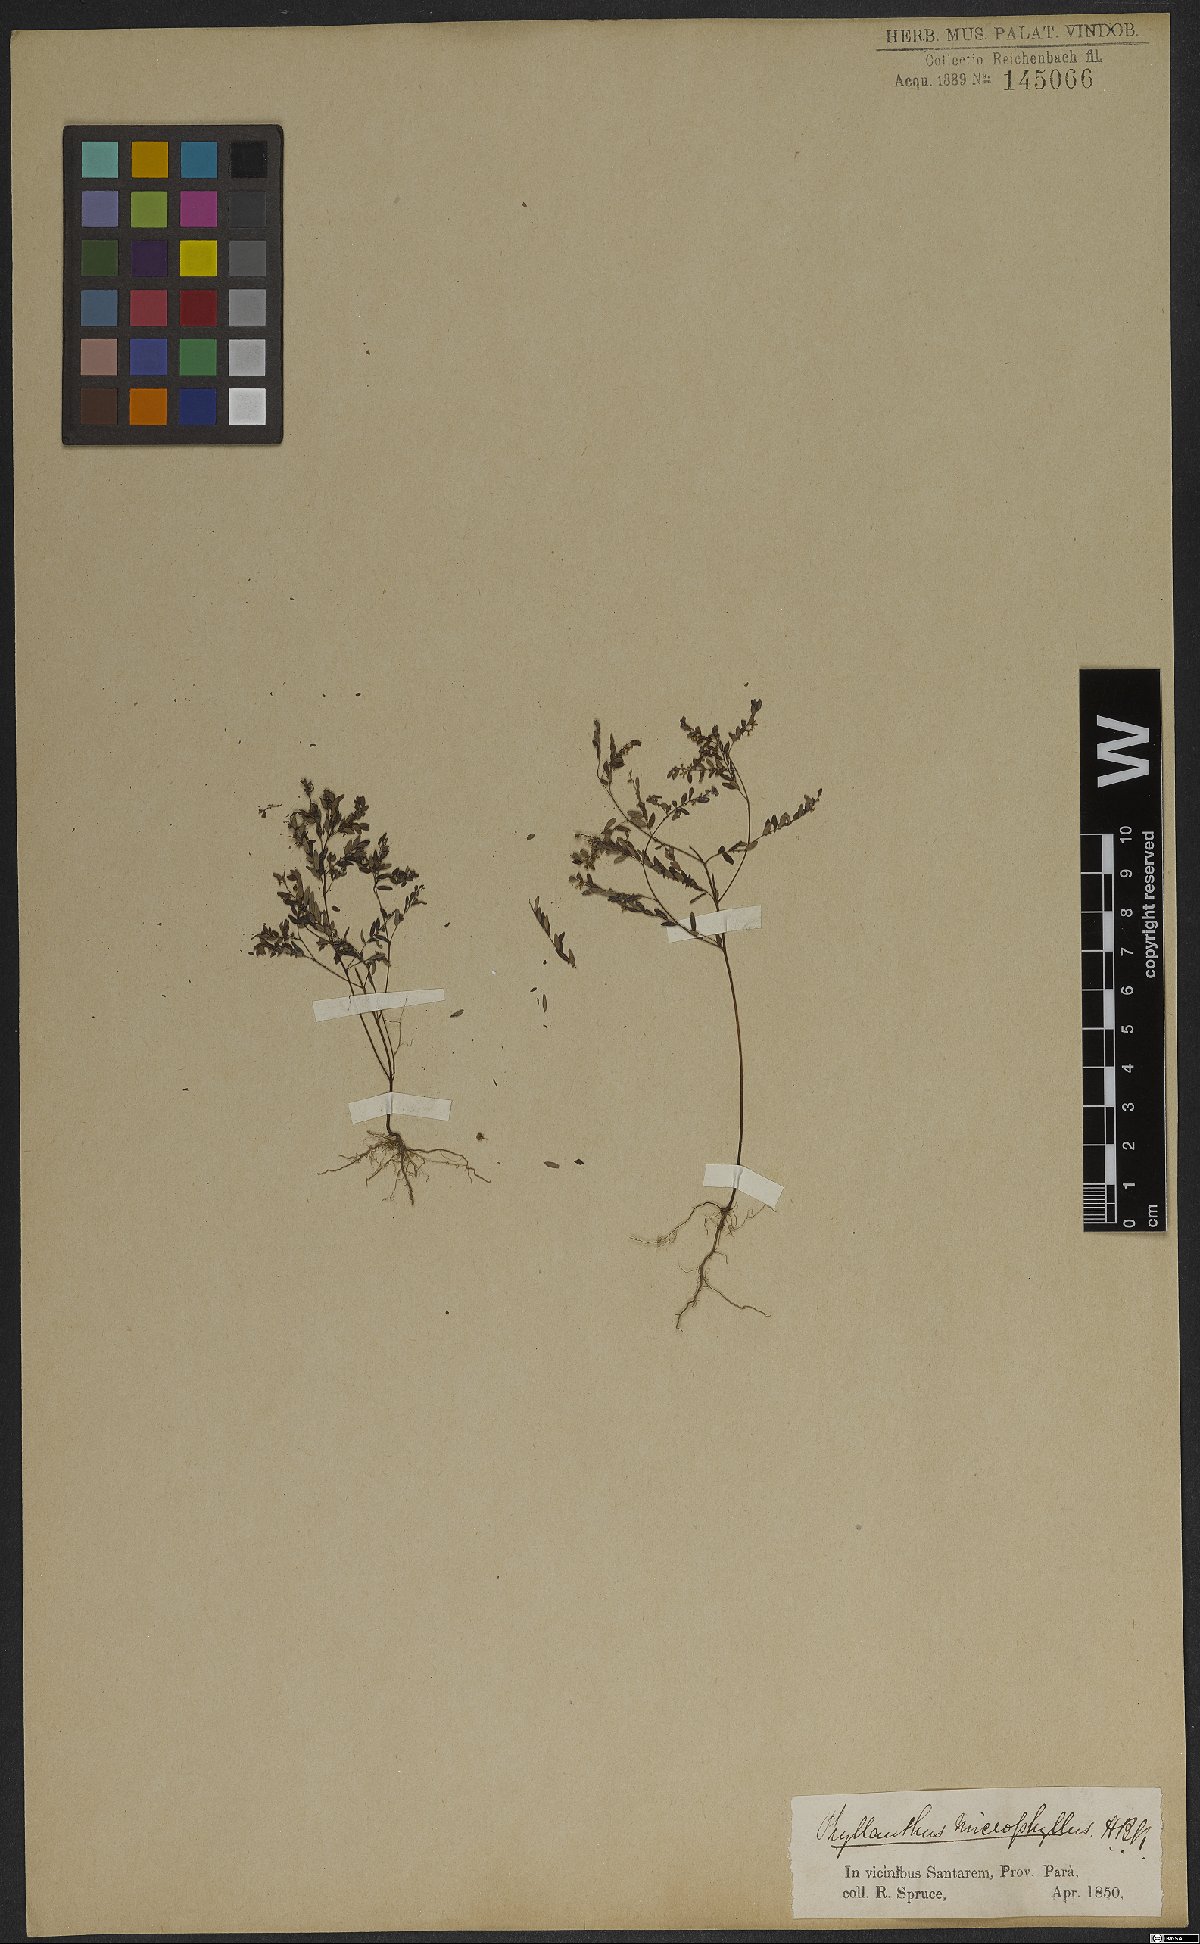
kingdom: Plantae
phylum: Tracheophyta
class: Magnoliopsida
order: Malpighiales
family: Phyllanthaceae
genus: Phyllanthus
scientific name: Phyllanthus minutulus
